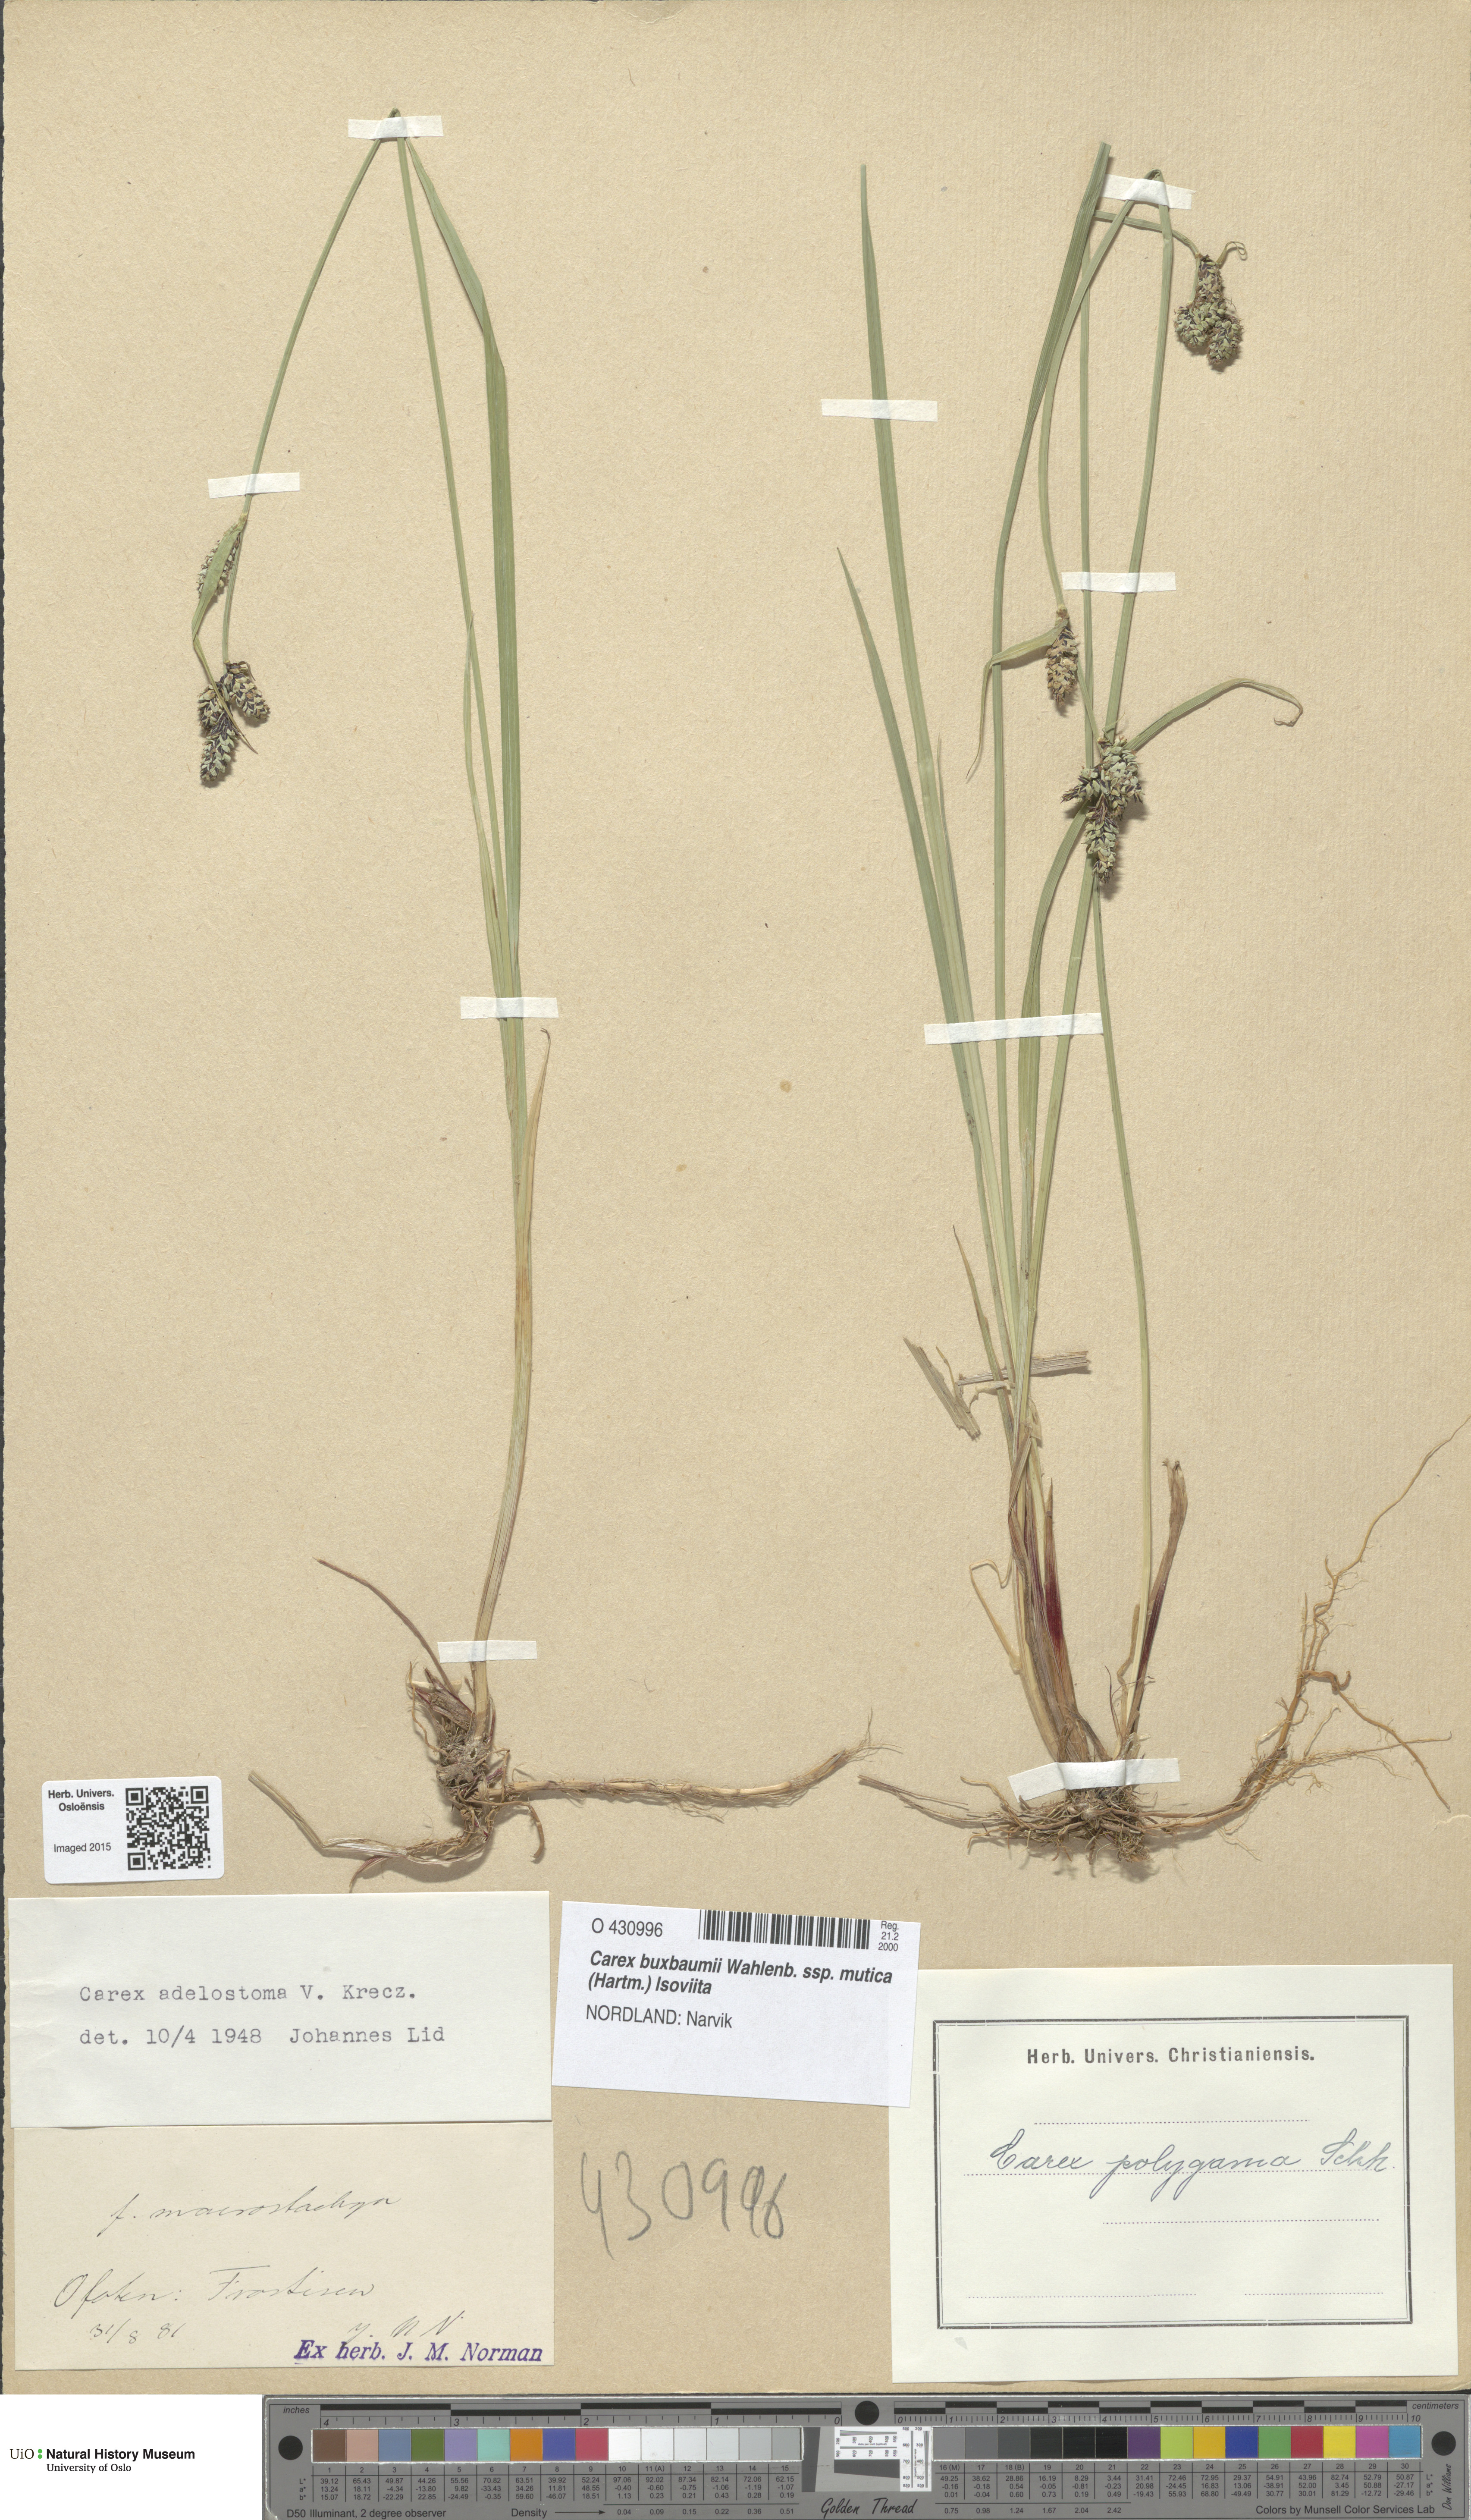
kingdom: Plantae
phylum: Tracheophyta
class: Liliopsida
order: Poales
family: Cyperaceae
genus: Carex
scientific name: Carex adelostoma
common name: Circumpolar sedge
